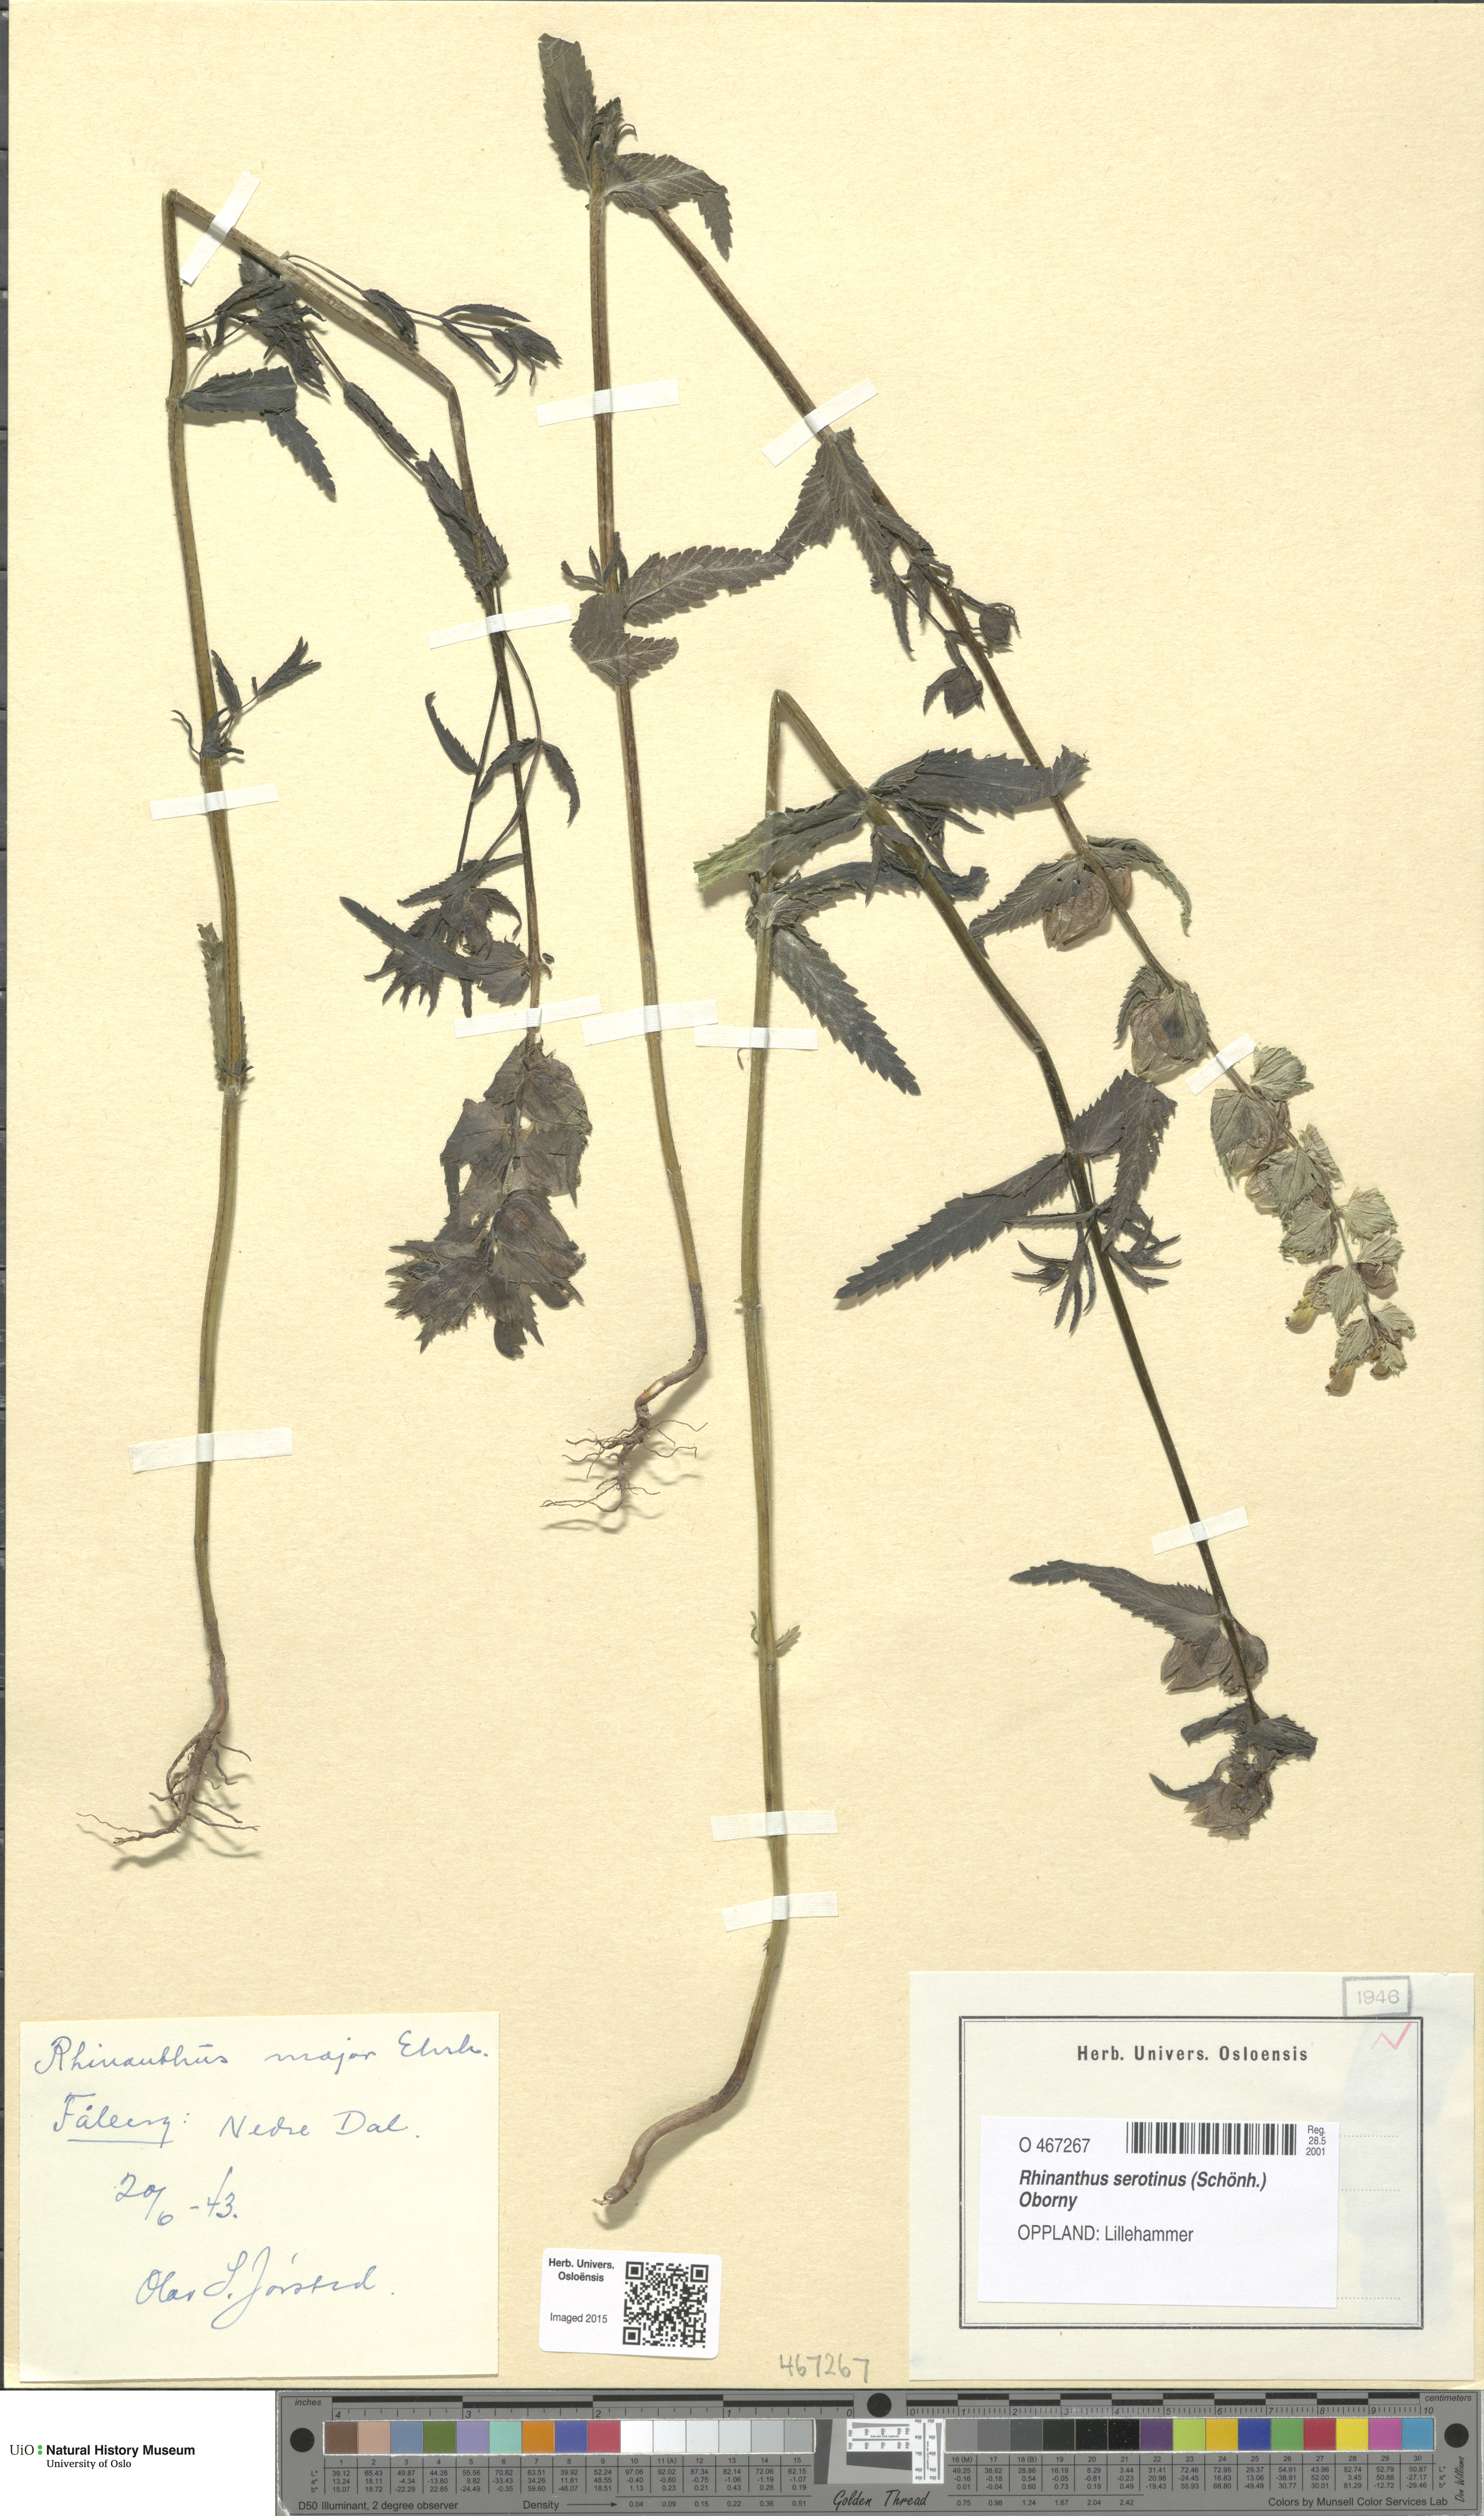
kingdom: Plantae
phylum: Tracheophyta
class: Magnoliopsida
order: Lamiales
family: Orobanchaceae
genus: Rhinanthus
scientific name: Rhinanthus serotinus
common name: Late-flowering yellow rattle
